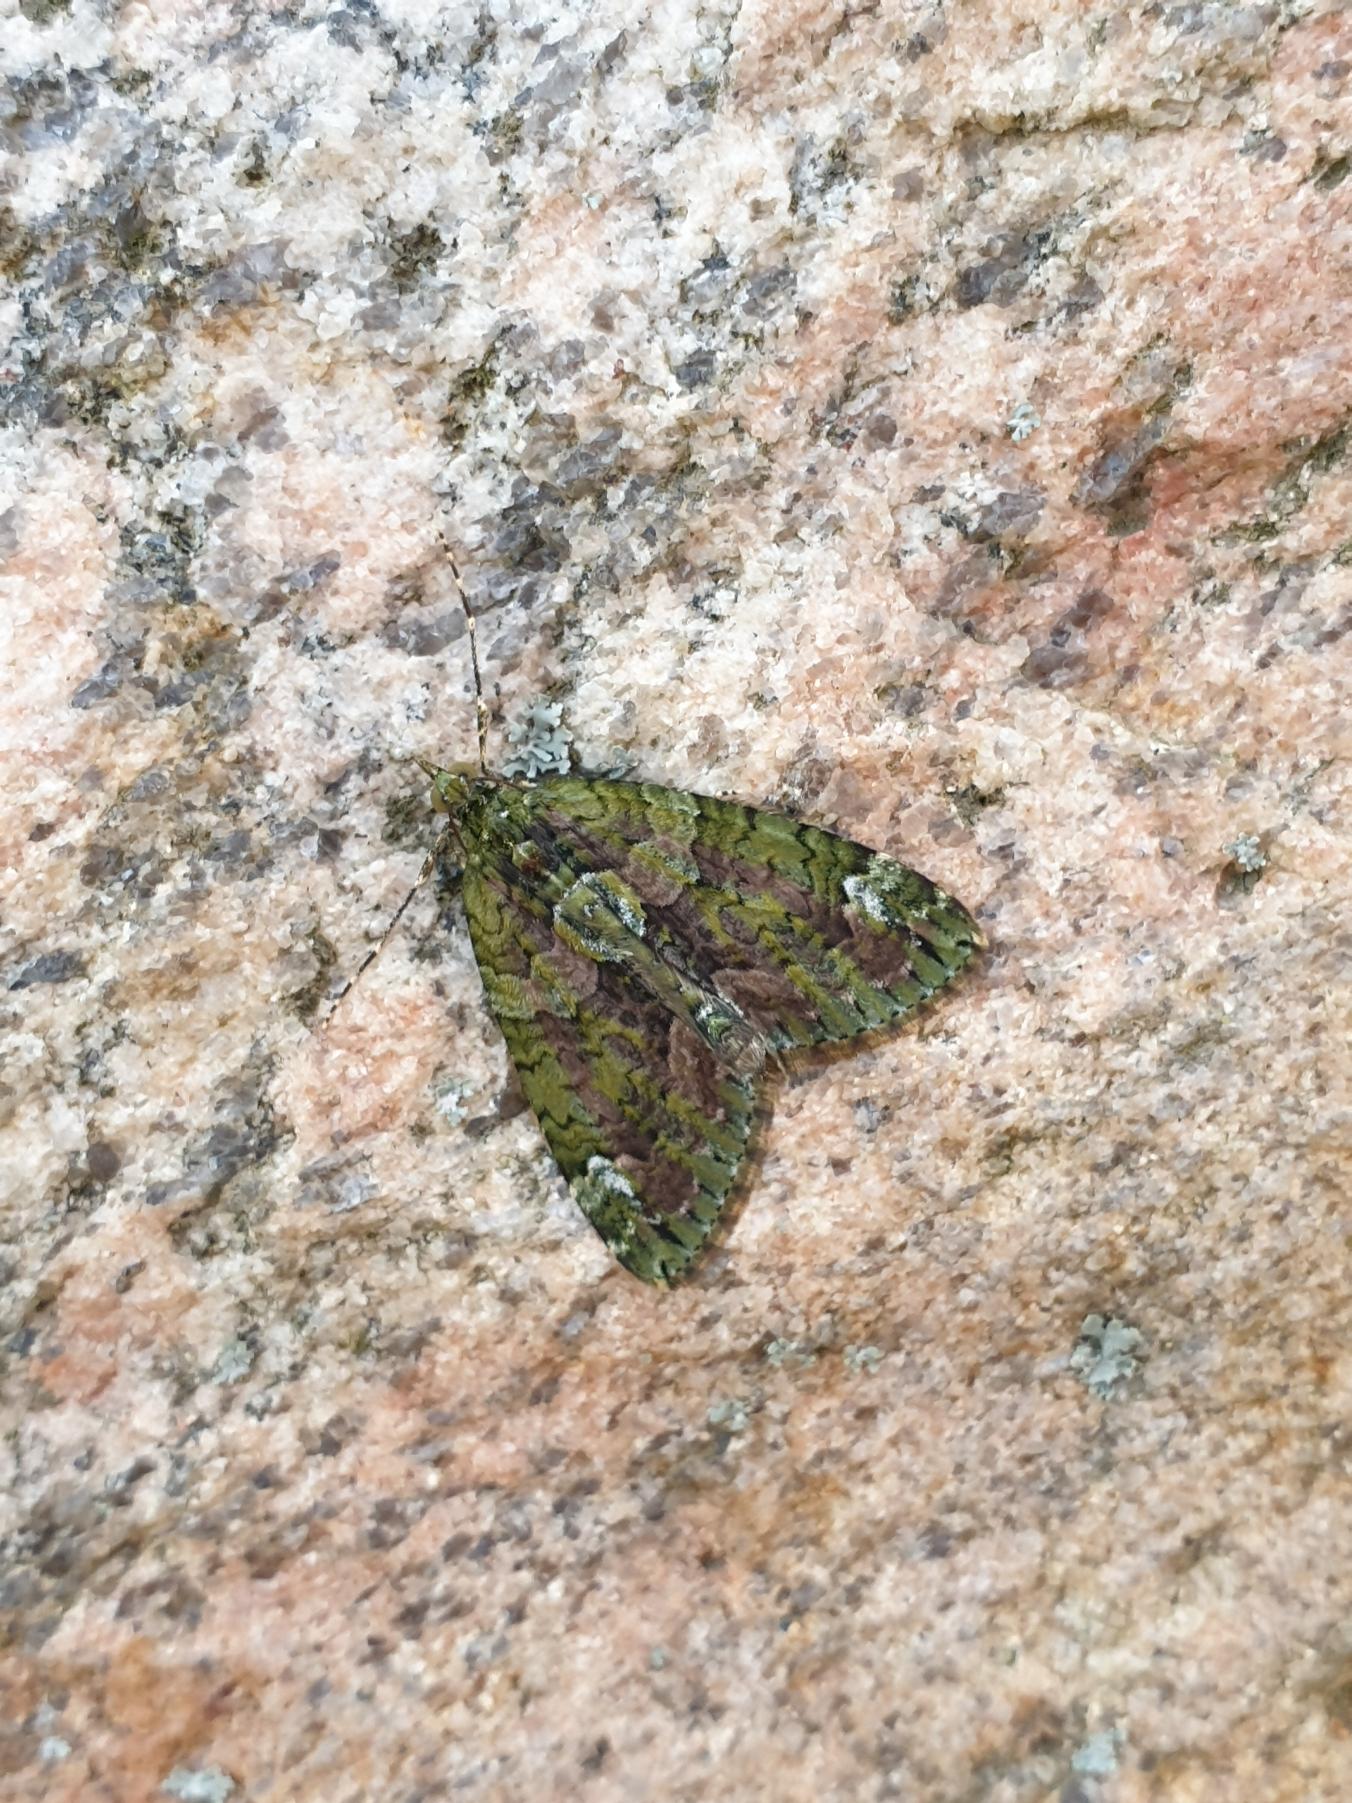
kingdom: Animalia
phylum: Arthropoda
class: Insecta
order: Lepidoptera
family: Geometridae
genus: Chloroclysta
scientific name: Chloroclysta siterata
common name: Brungrøn bladmåler
